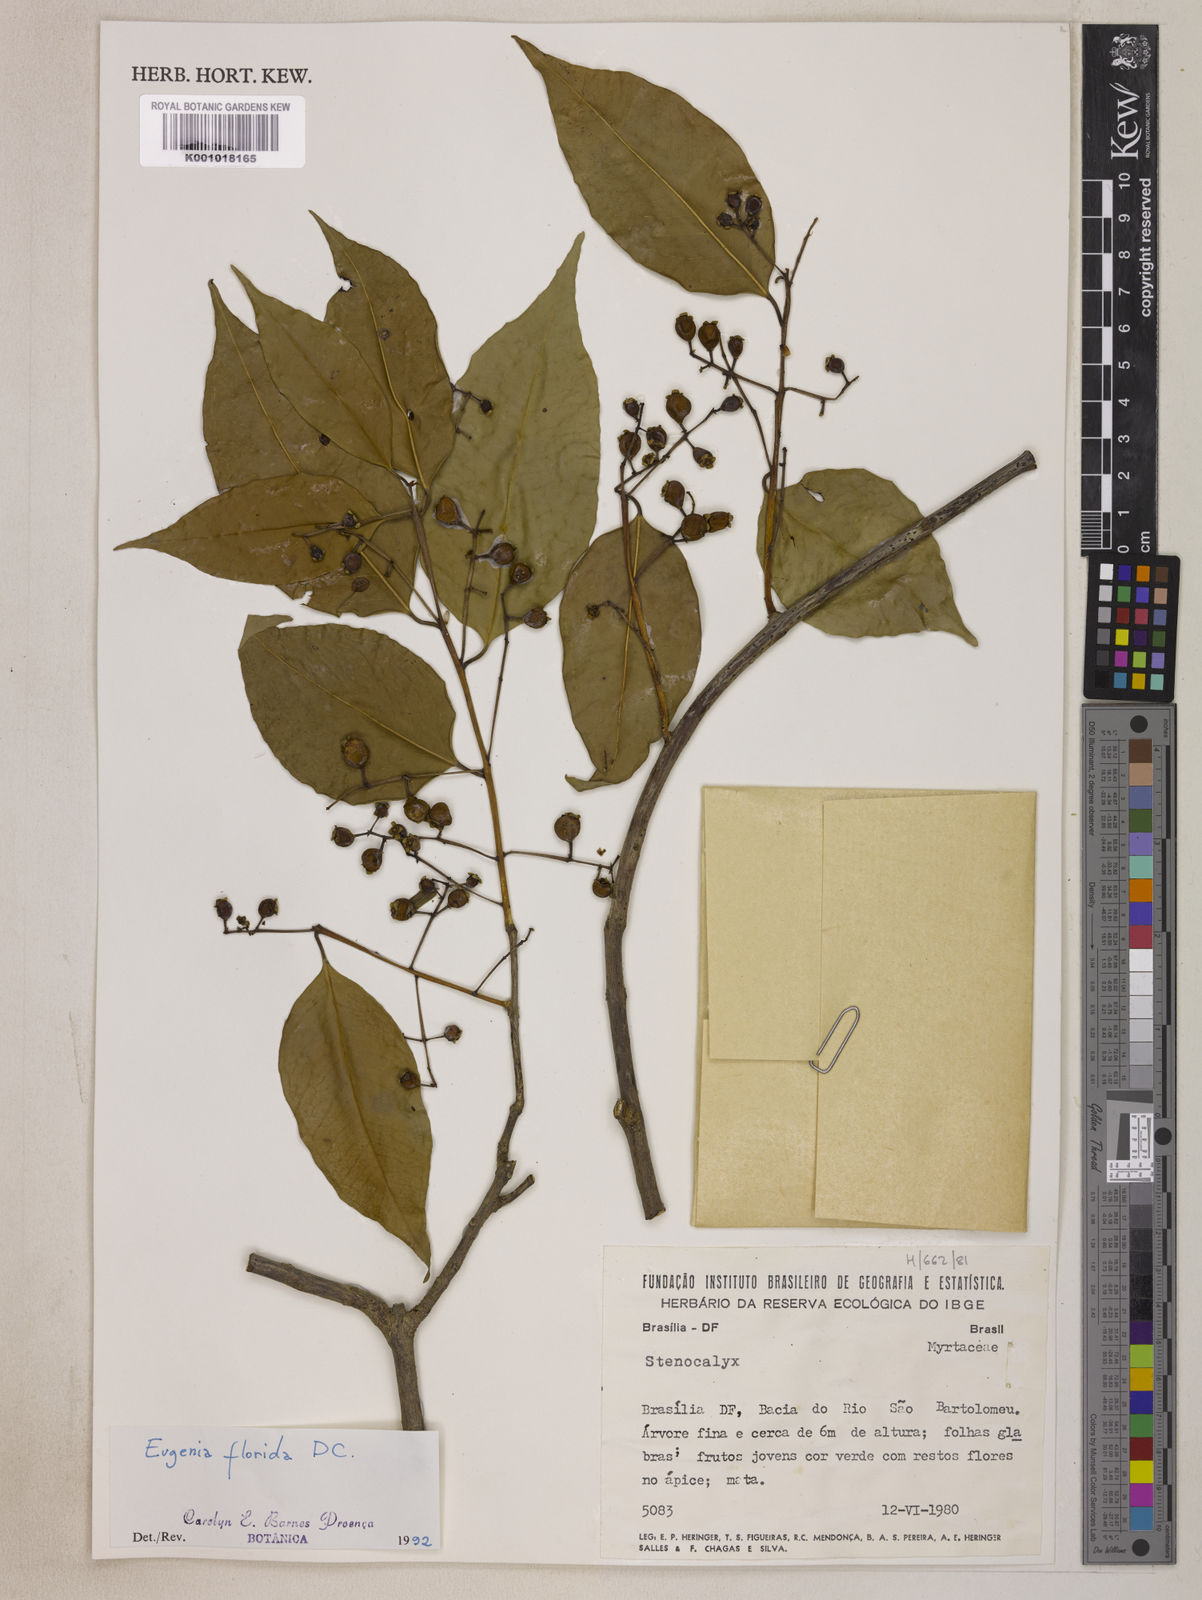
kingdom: Plantae
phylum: Tracheophyta
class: Magnoliopsida
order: Myrtales
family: Myrtaceae
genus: Eugenia
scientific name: Eugenia florida
